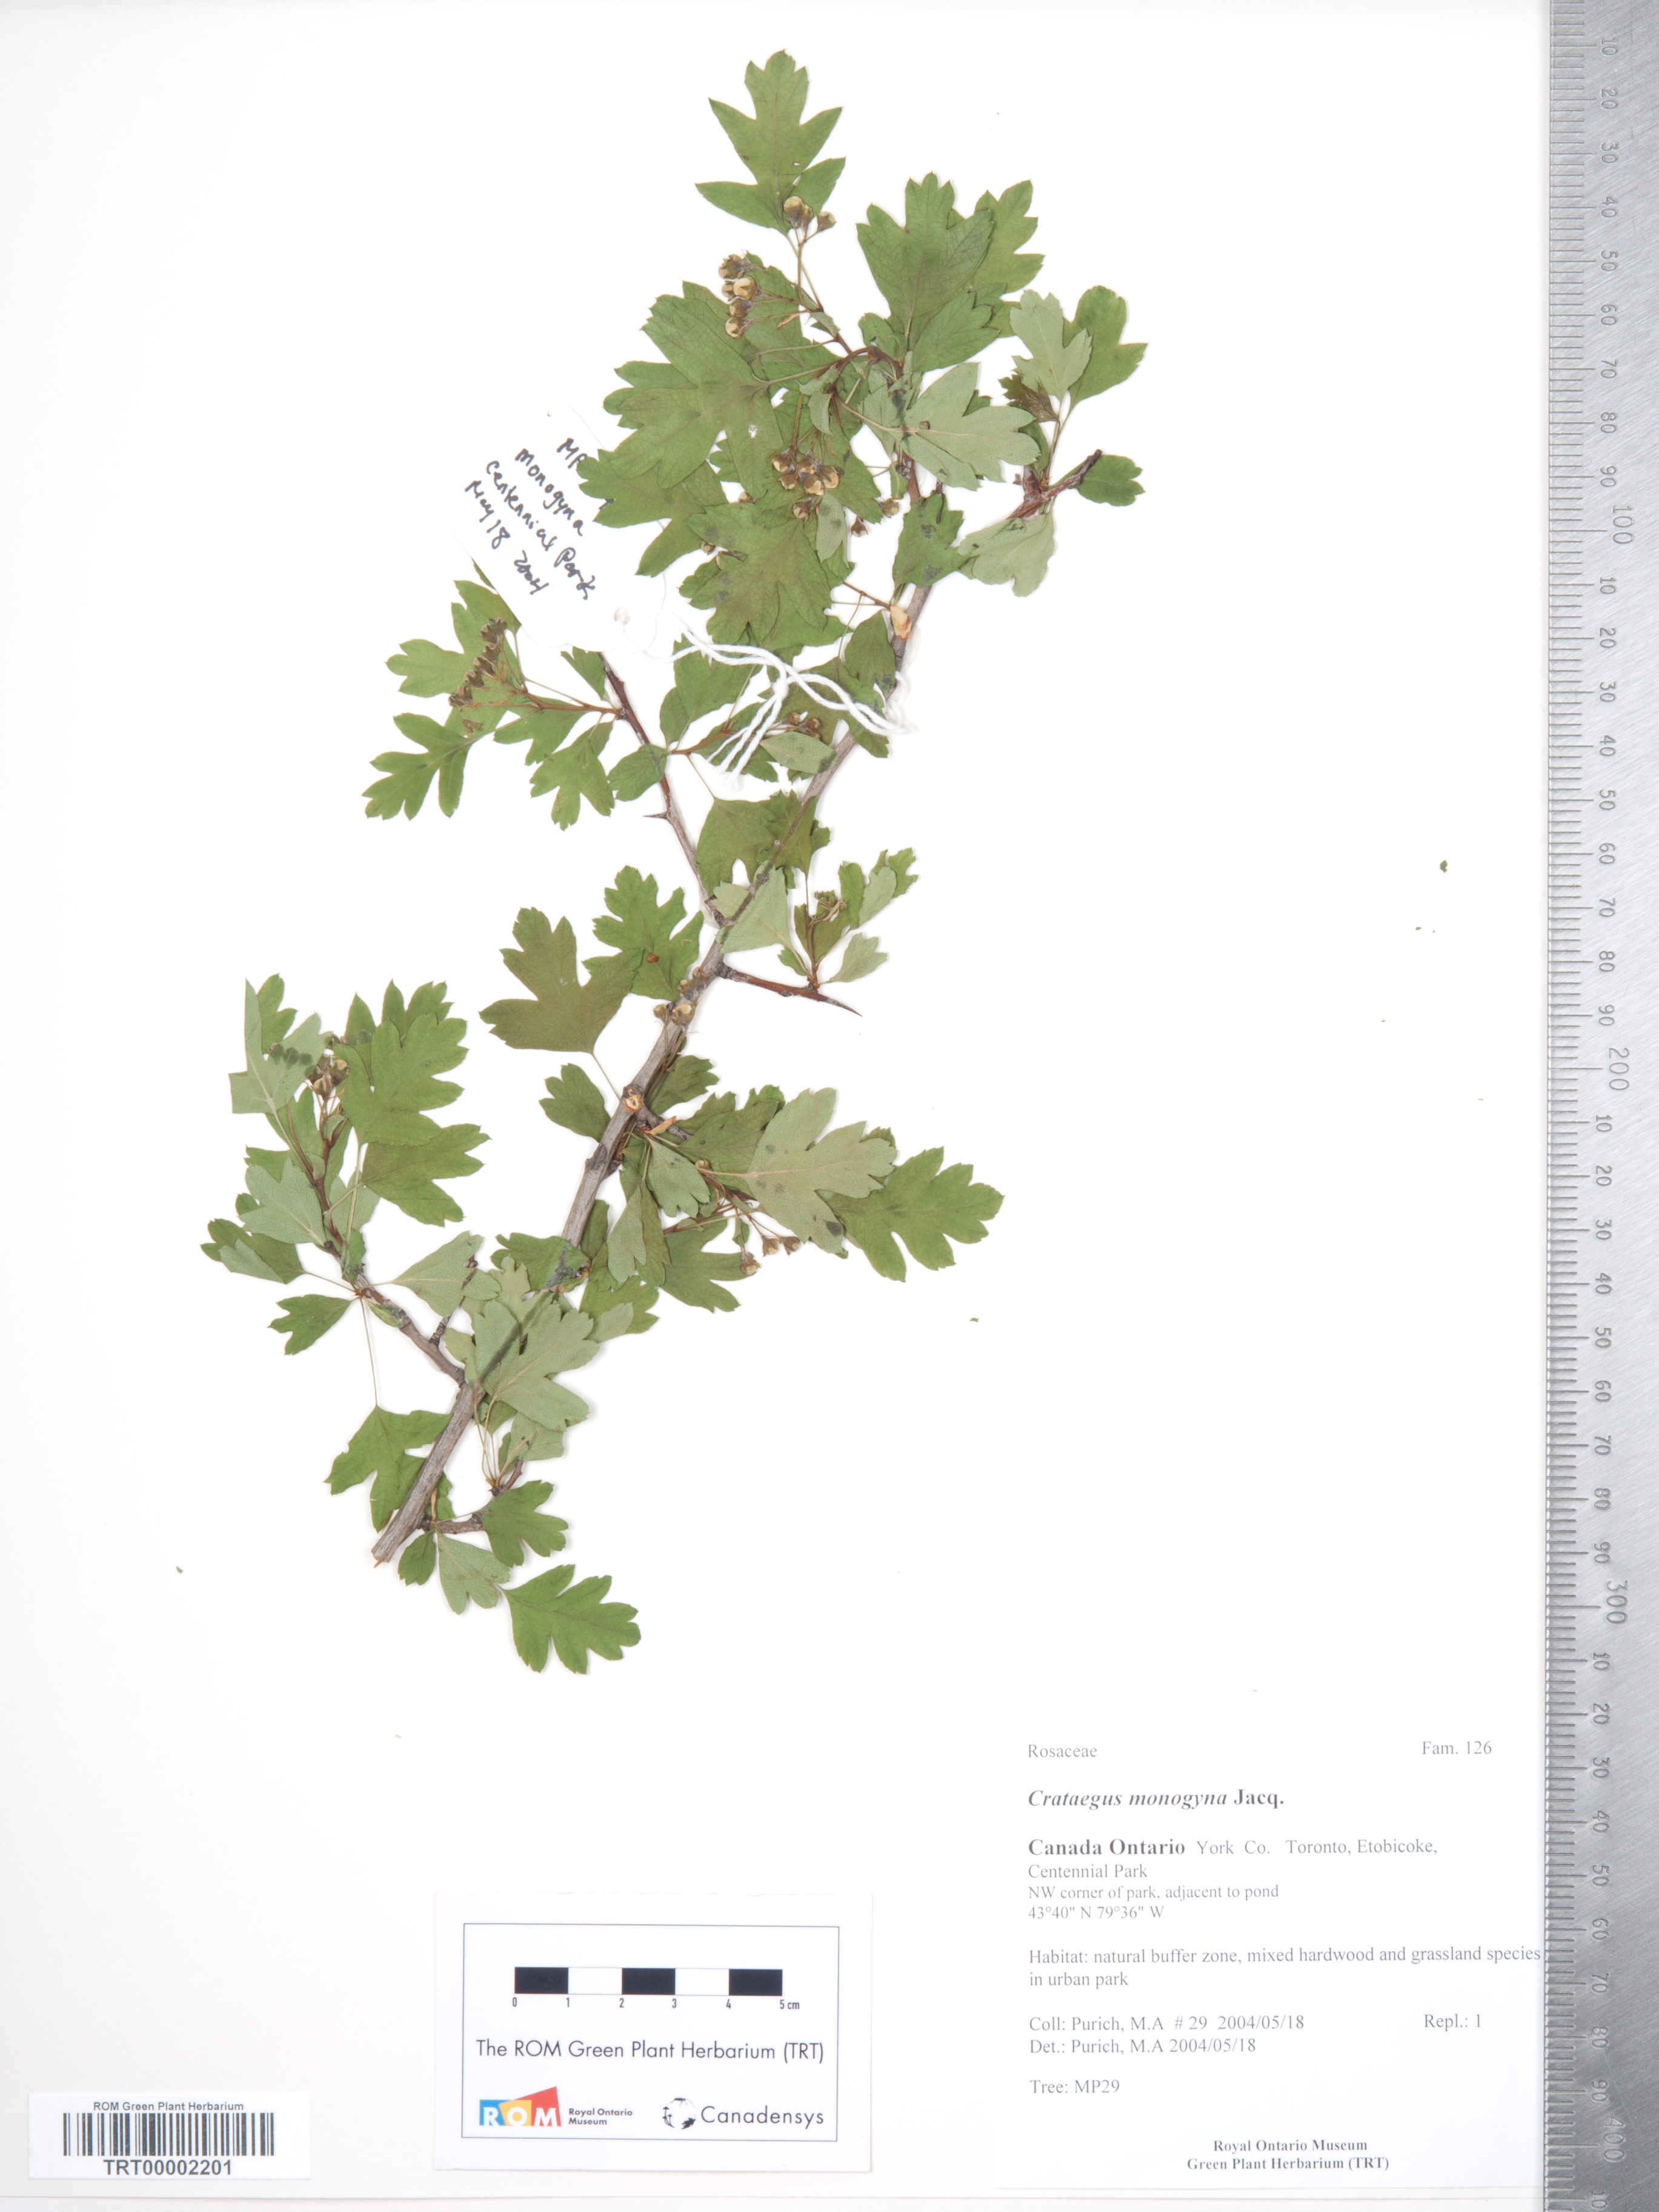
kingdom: Plantae
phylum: Tracheophyta
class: Magnoliopsida
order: Rosales
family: Rosaceae
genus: Crataegus
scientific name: Crataegus monogyna
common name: Hawthorn
